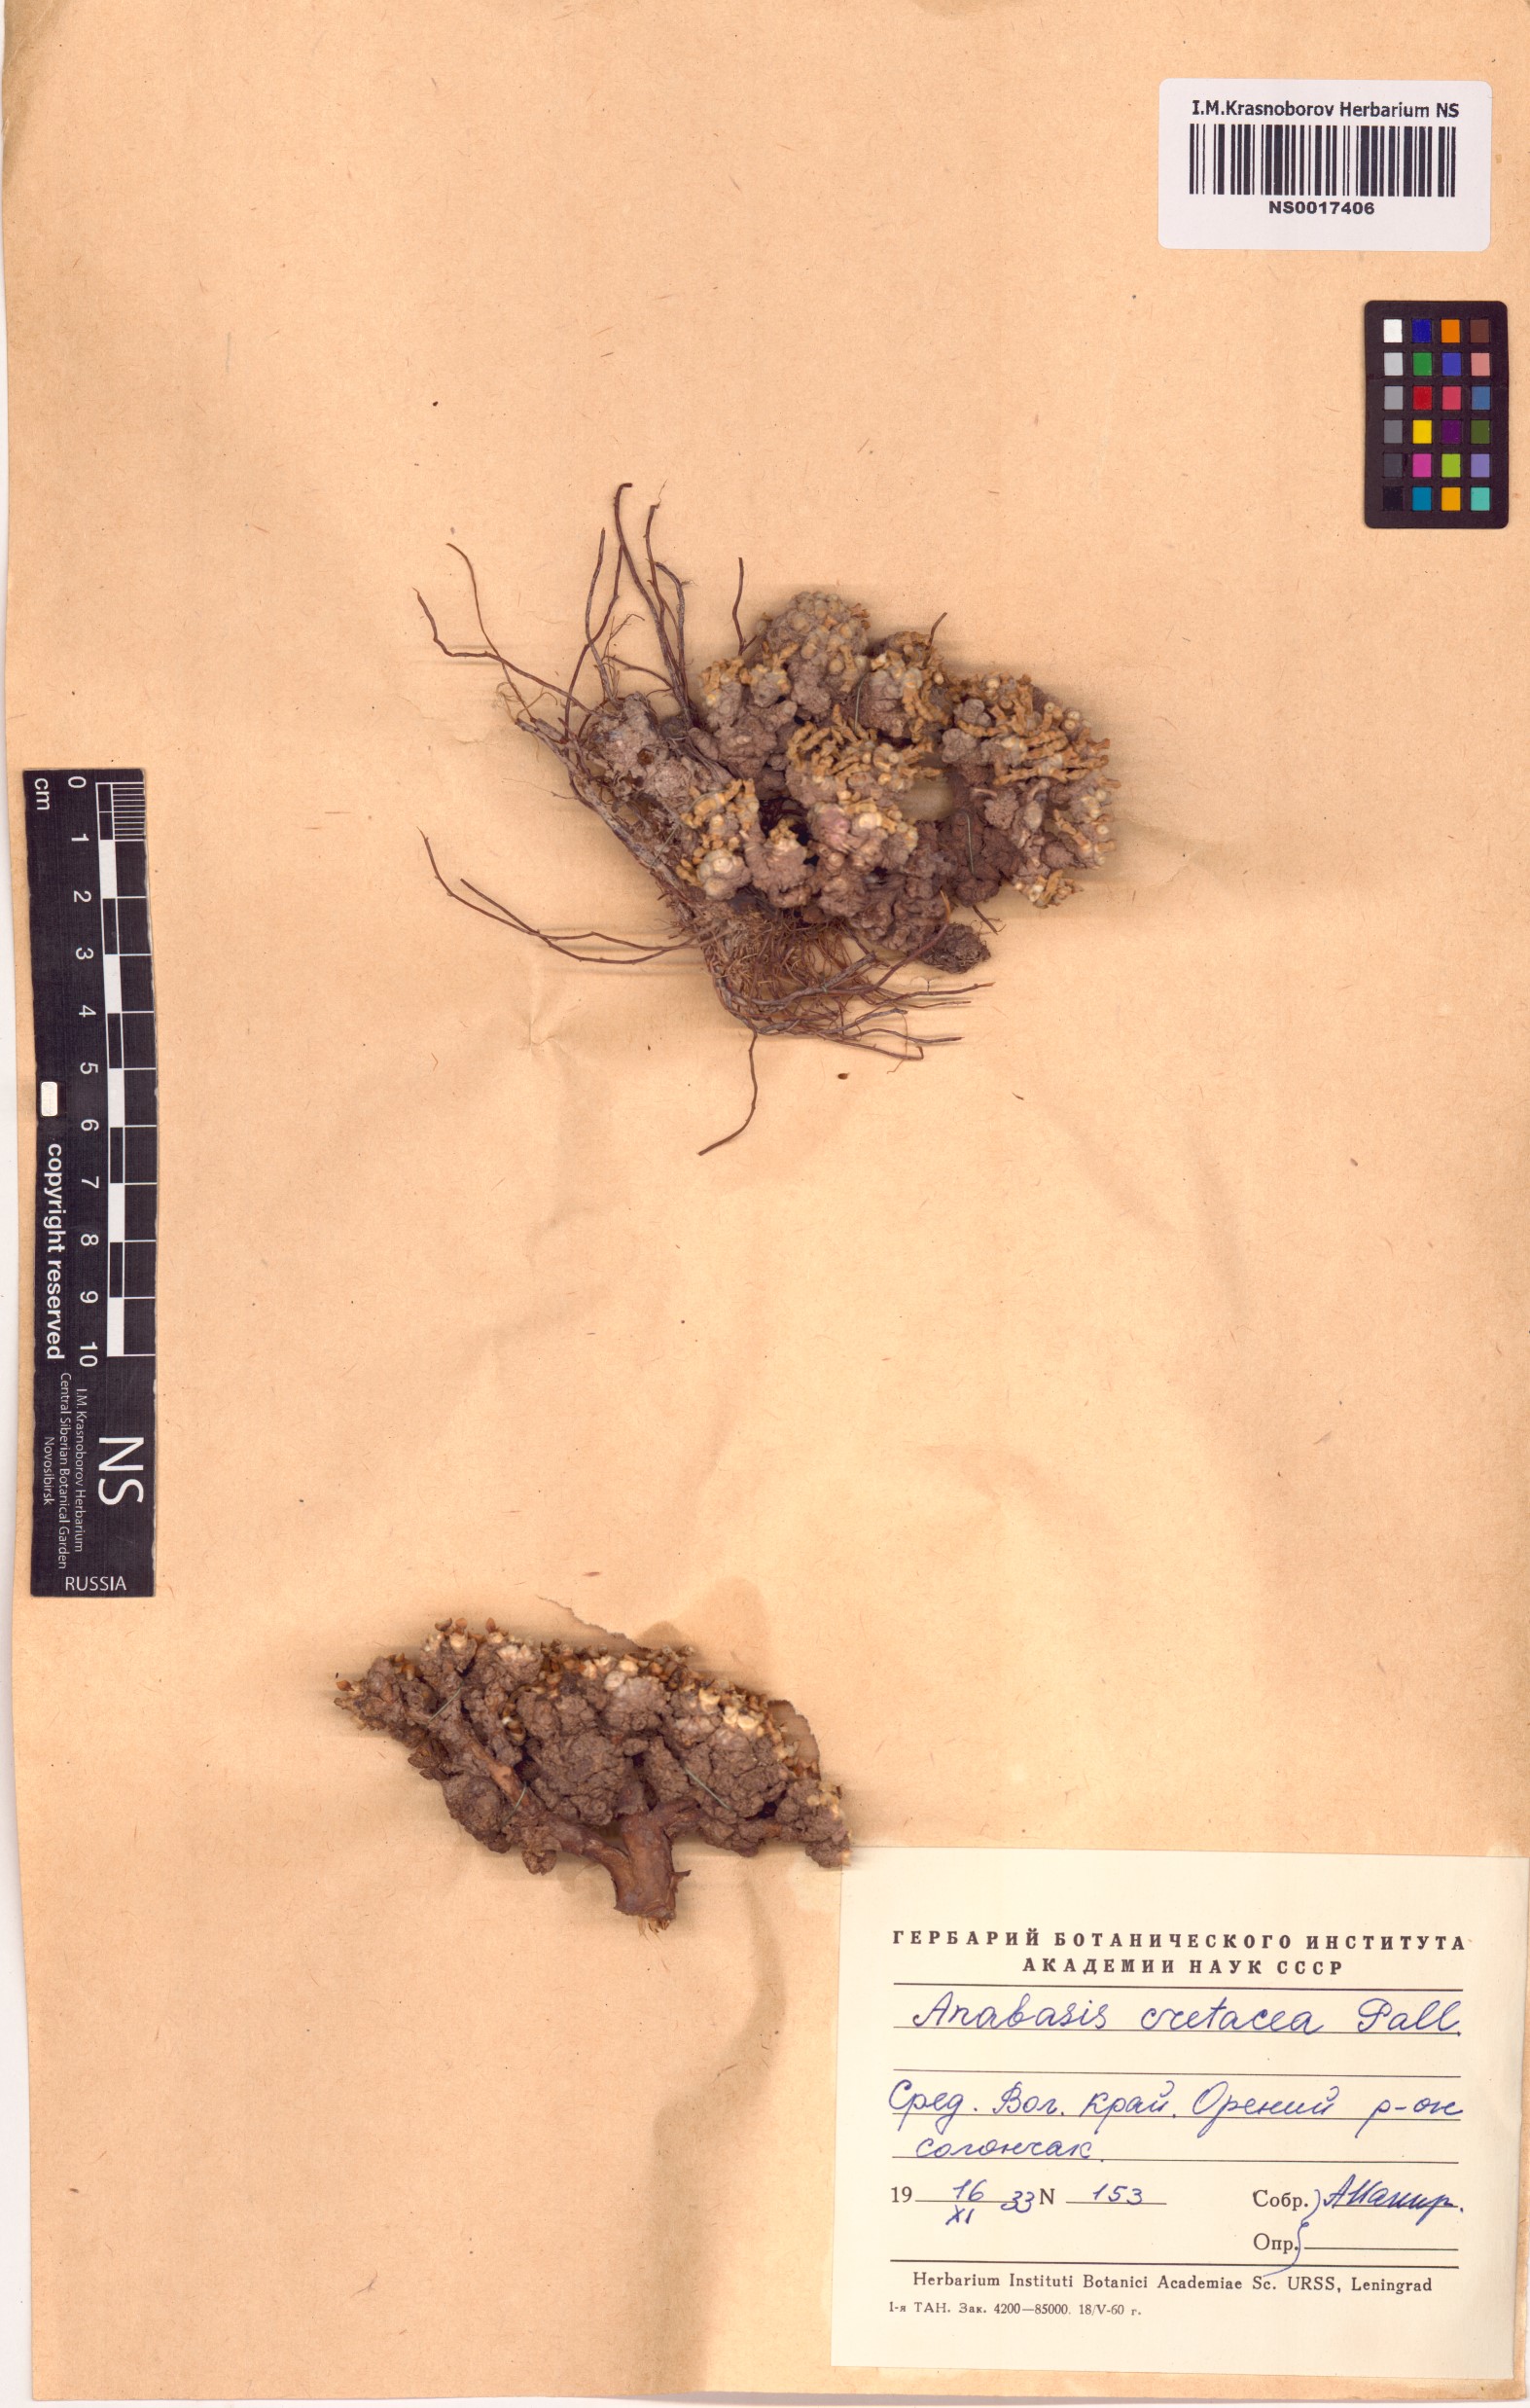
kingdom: Plantae
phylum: Tracheophyta
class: Magnoliopsida
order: Caryophyllales
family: Amaranthaceae
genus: Anabasis
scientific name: Anabasis cretacea
